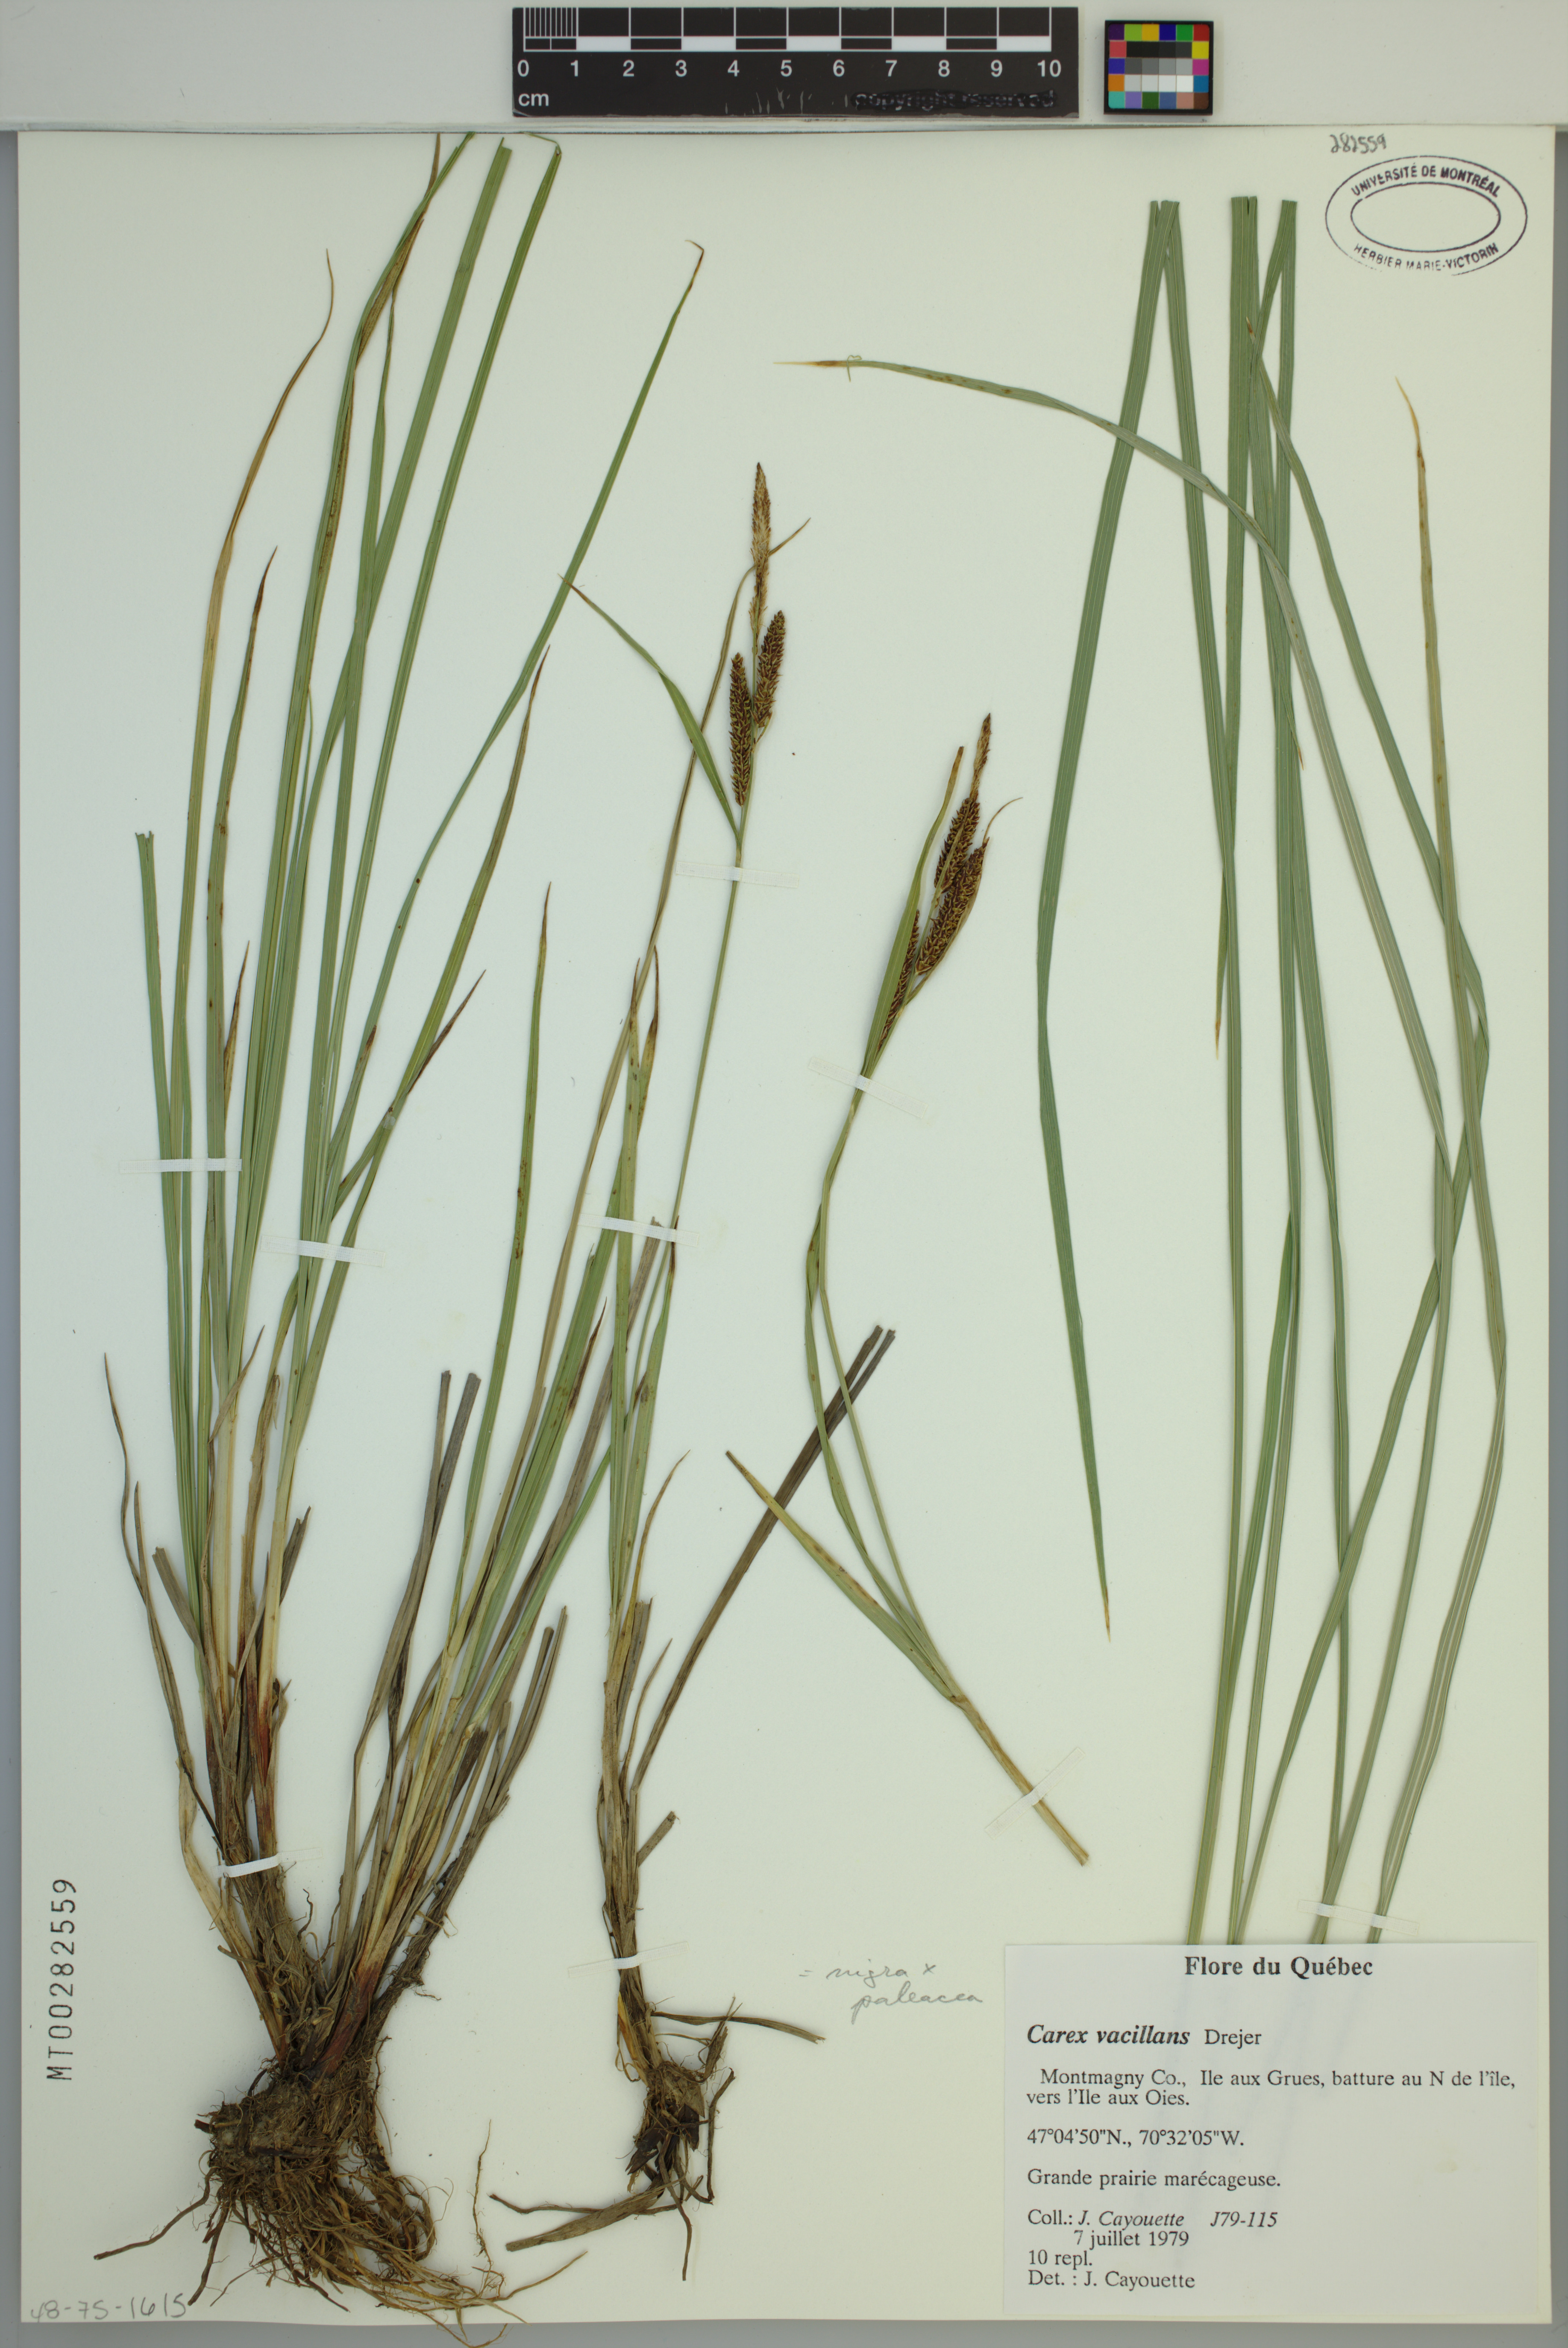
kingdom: Plantae
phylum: Tracheophyta
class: Liliopsida
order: Poales
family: Cyperaceae
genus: Carex
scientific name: Carex vacillans
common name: Sedge
